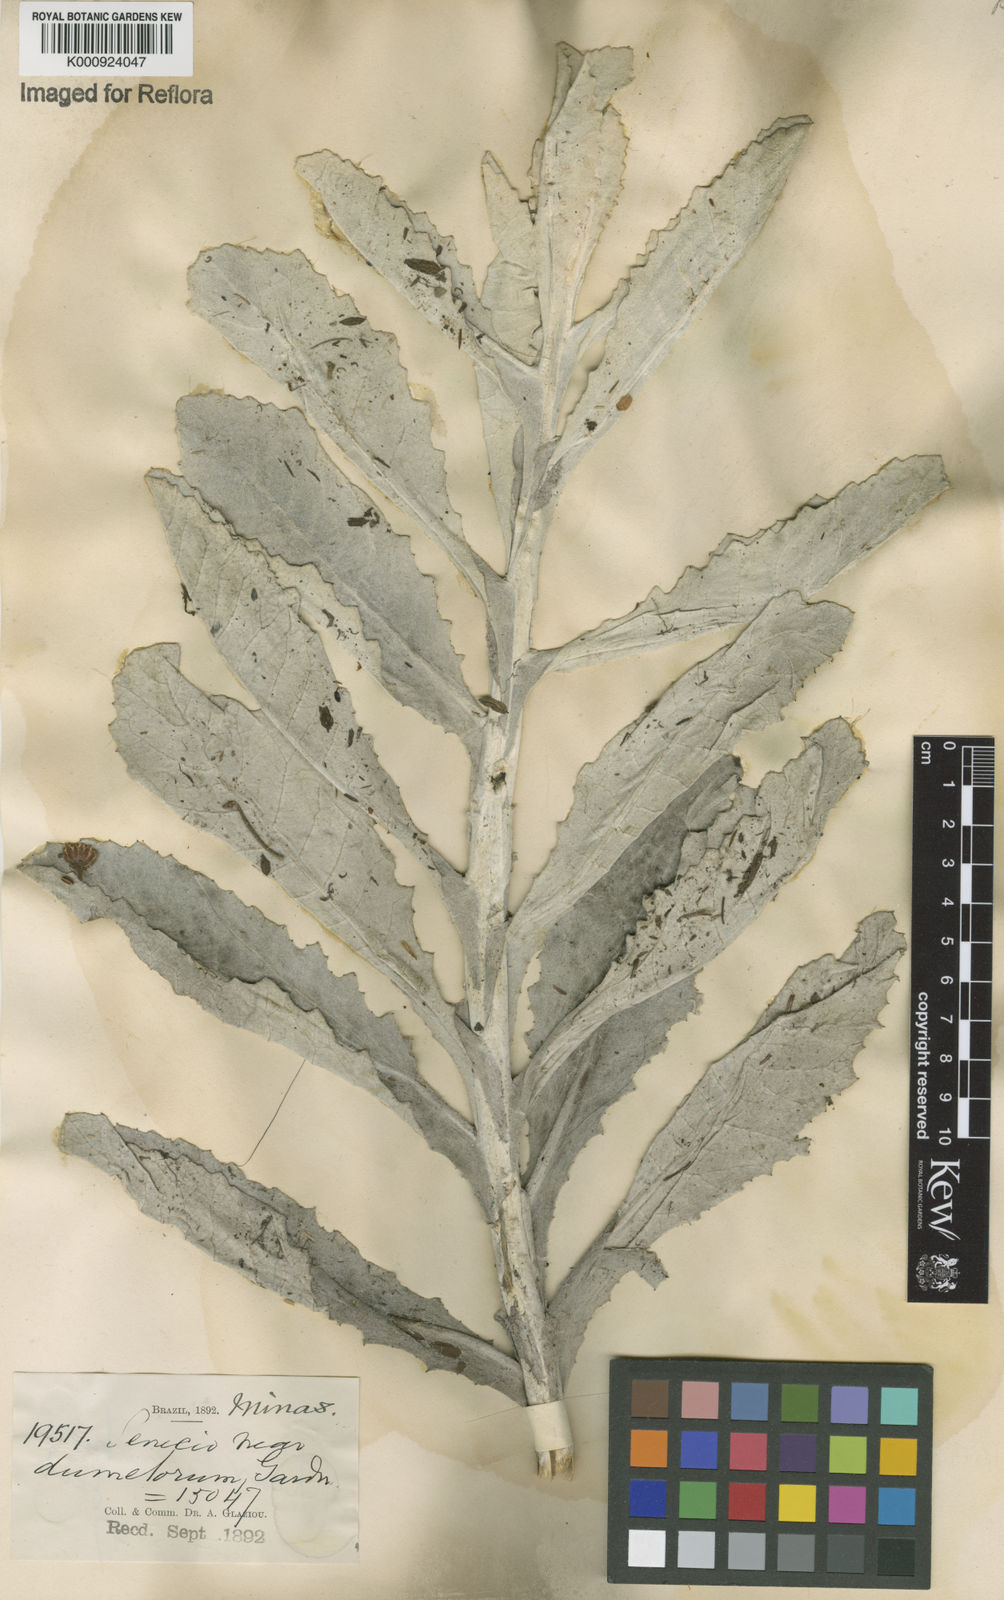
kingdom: Plantae
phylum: Tracheophyta
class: Magnoliopsida
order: Asterales
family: Asteraceae
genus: Senecio
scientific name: Senecio dumetorum
